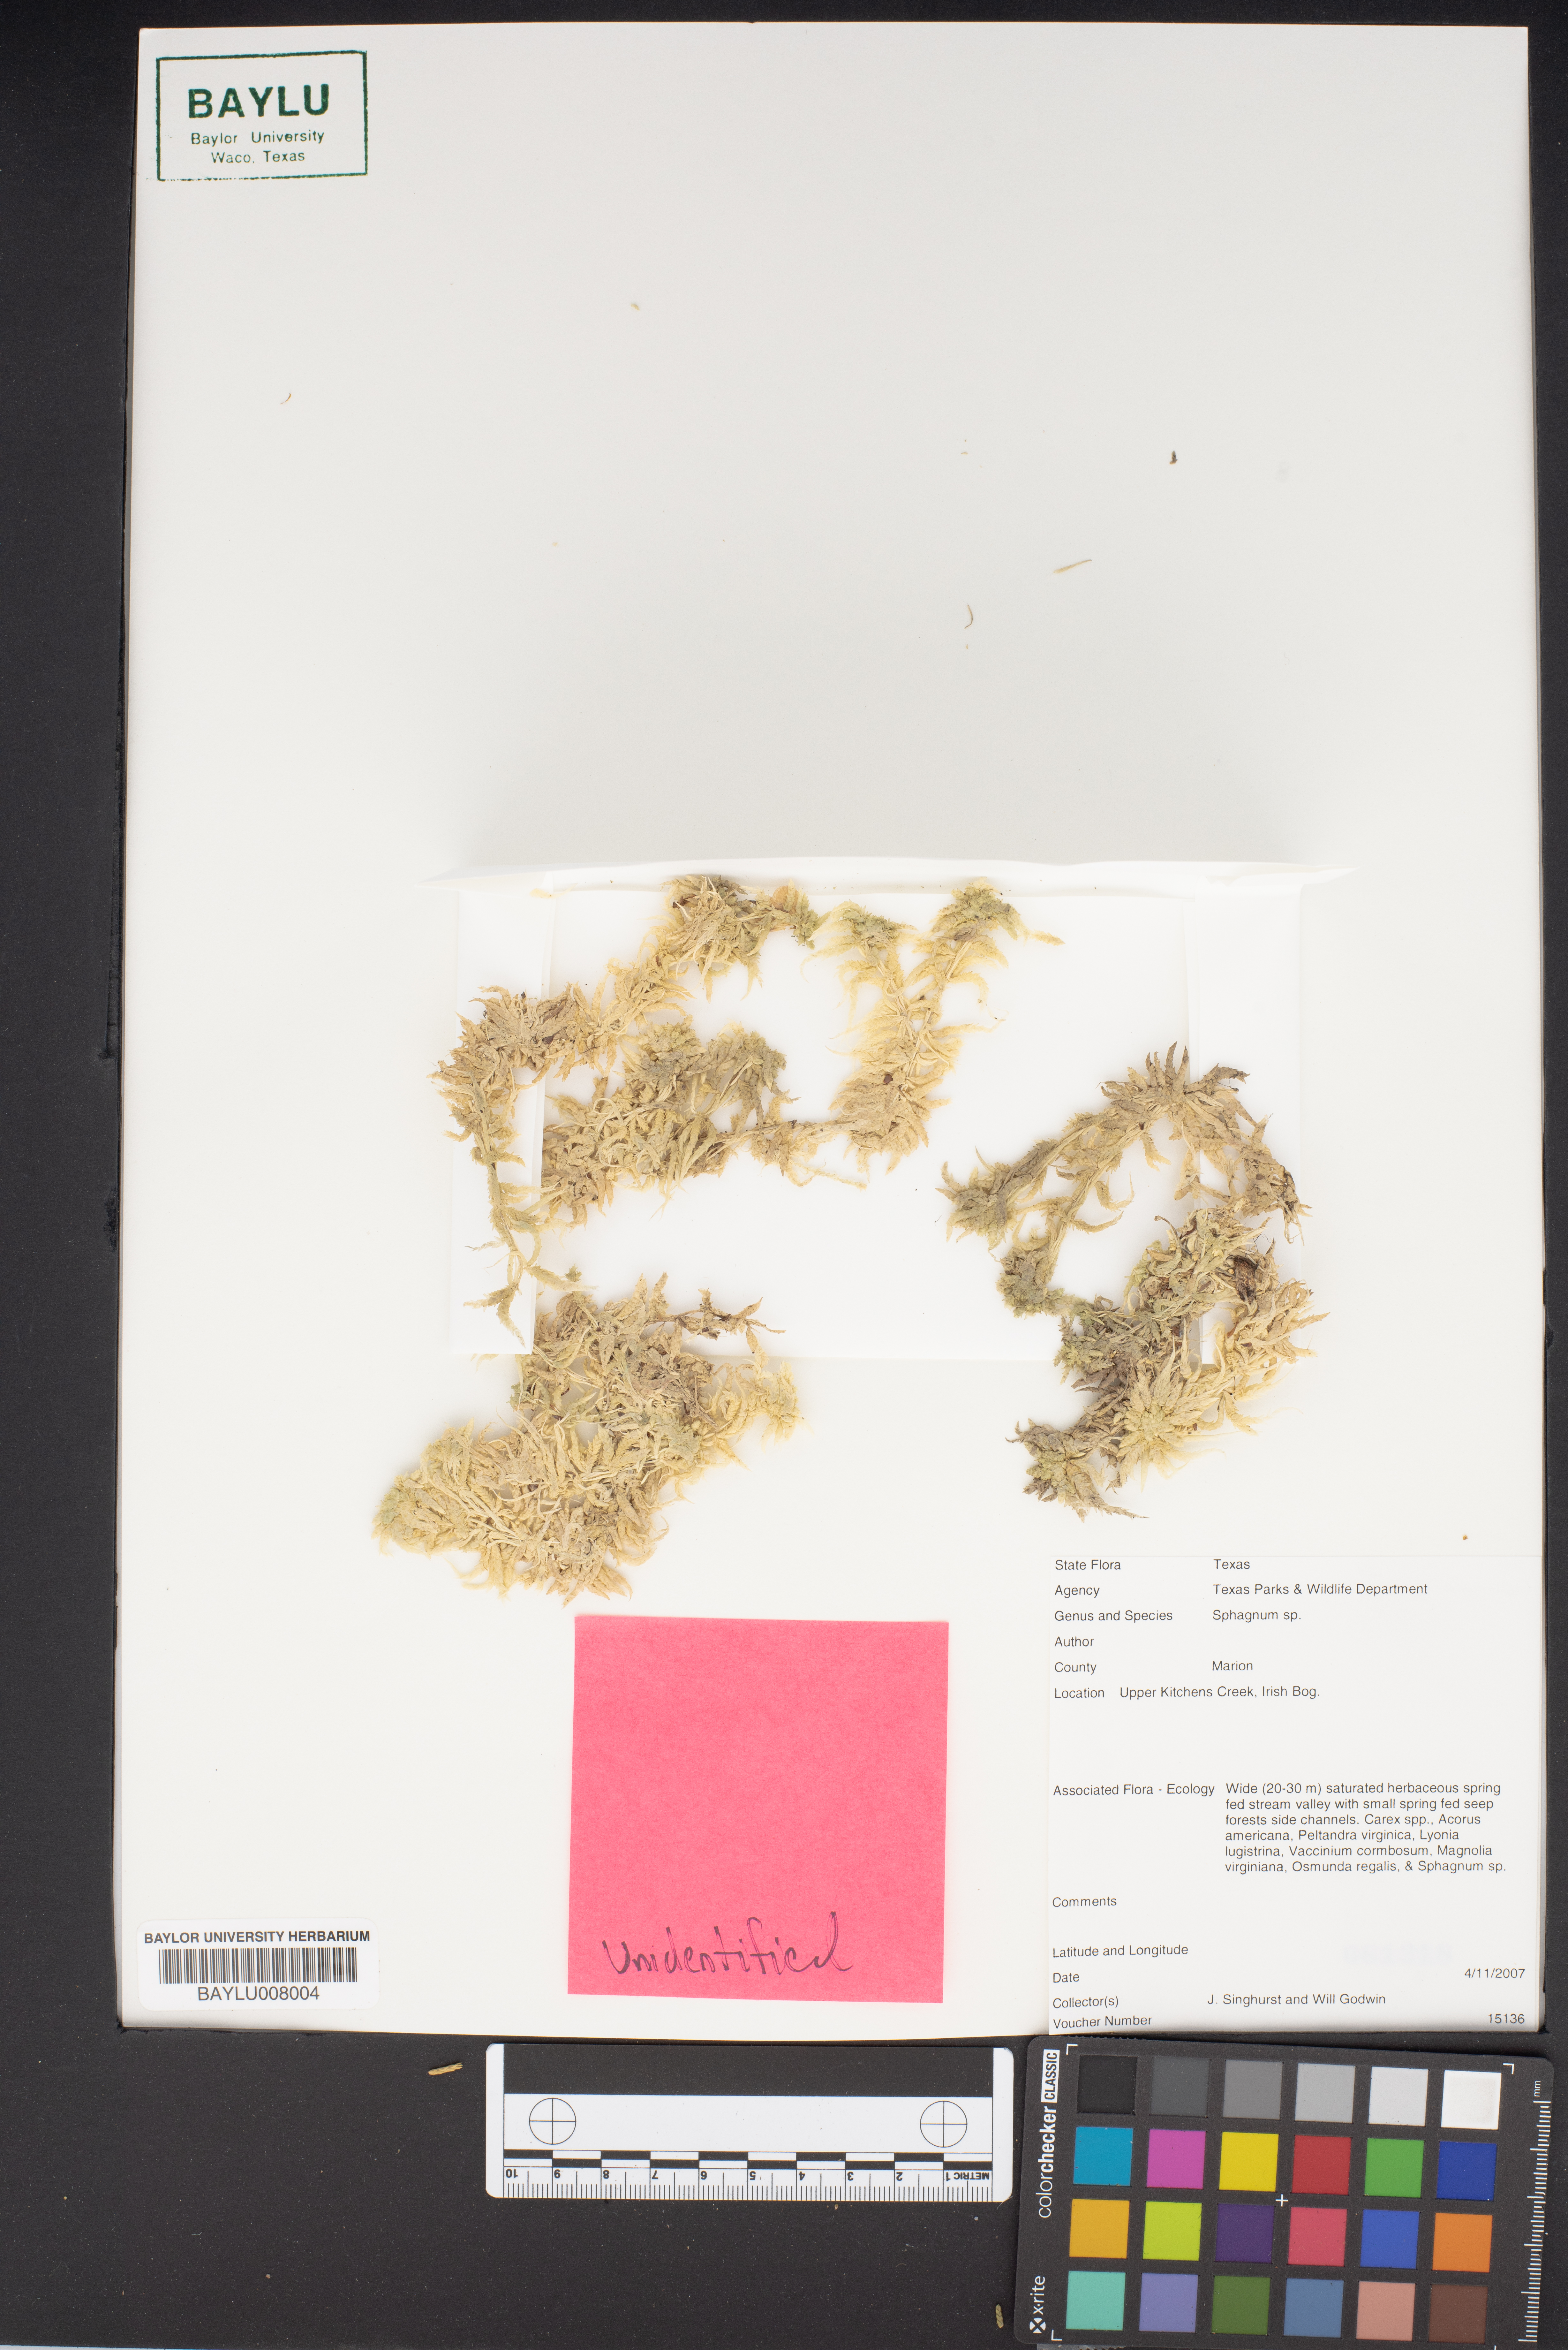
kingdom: Plantae
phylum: Bryophyta
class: Sphagnopsida
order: Sphagnales
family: Sphagnaceae
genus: Sphagnum
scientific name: Sphagnum
